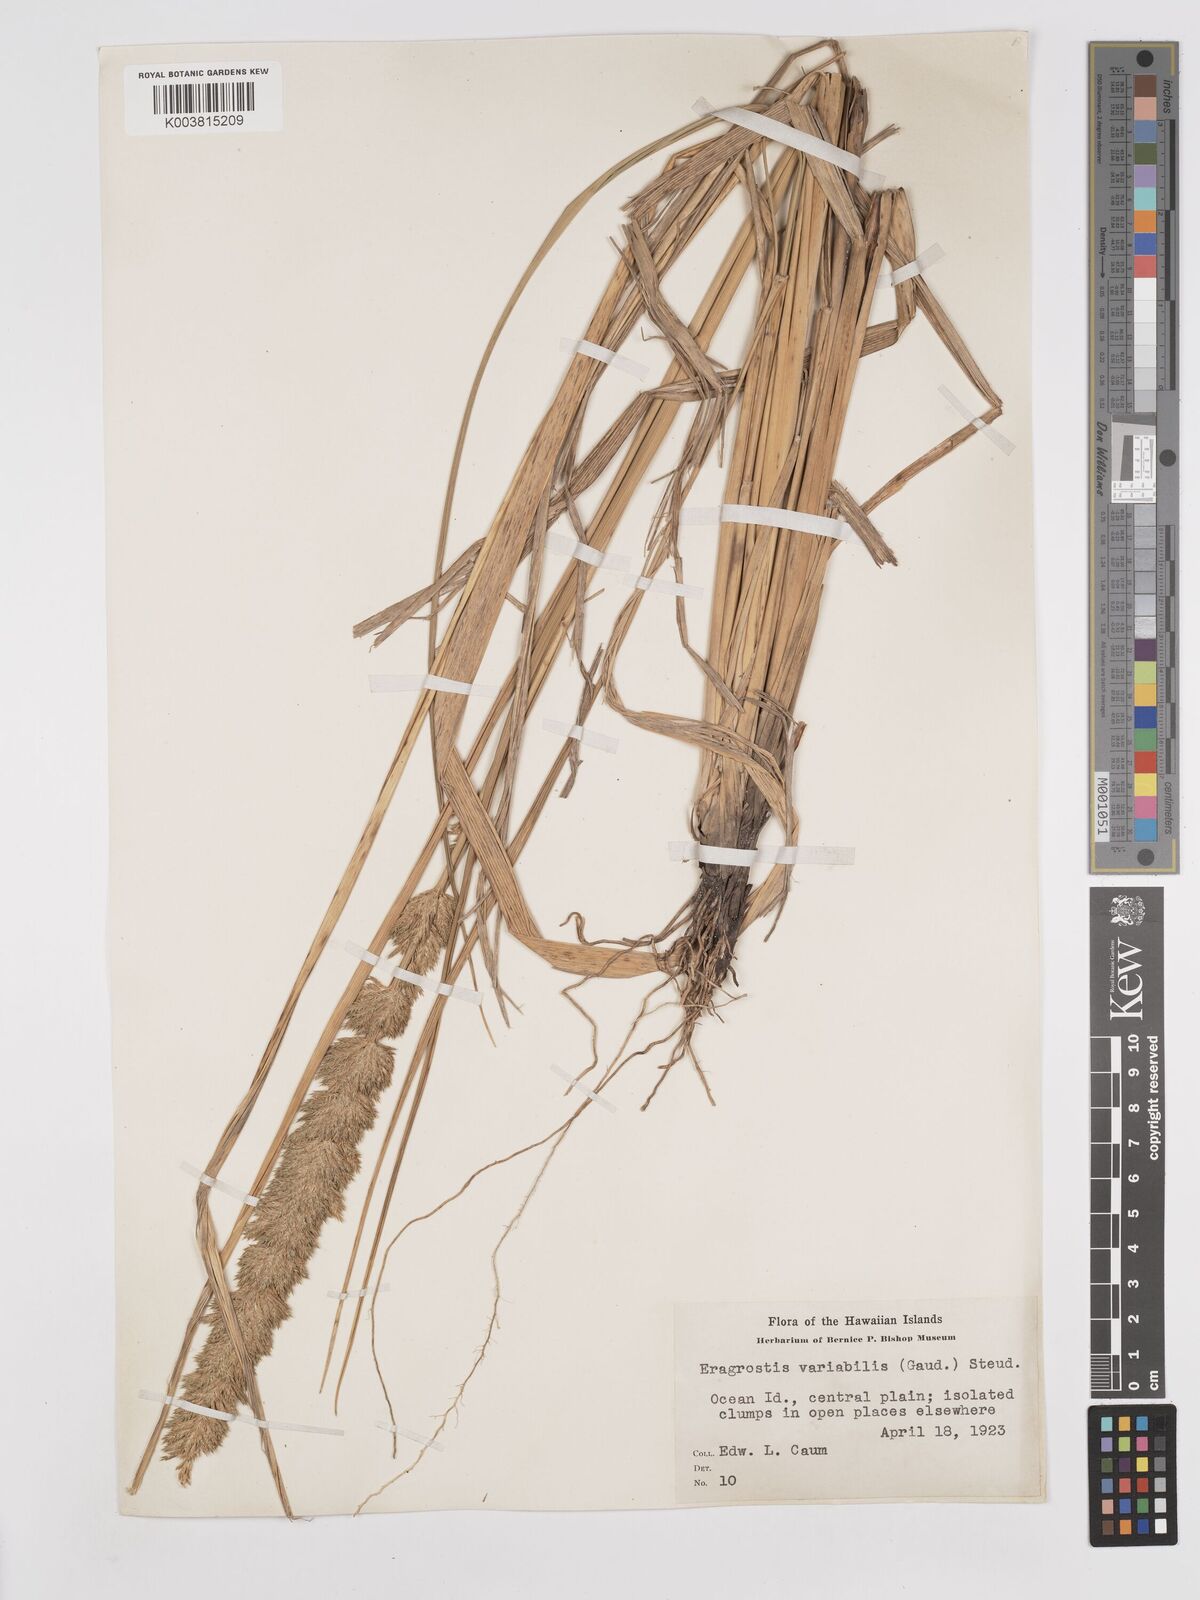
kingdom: Plantae
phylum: Tracheophyta
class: Liliopsida
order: Poales
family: Poaceae
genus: Eragrostis
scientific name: Eragrostis variabilis
